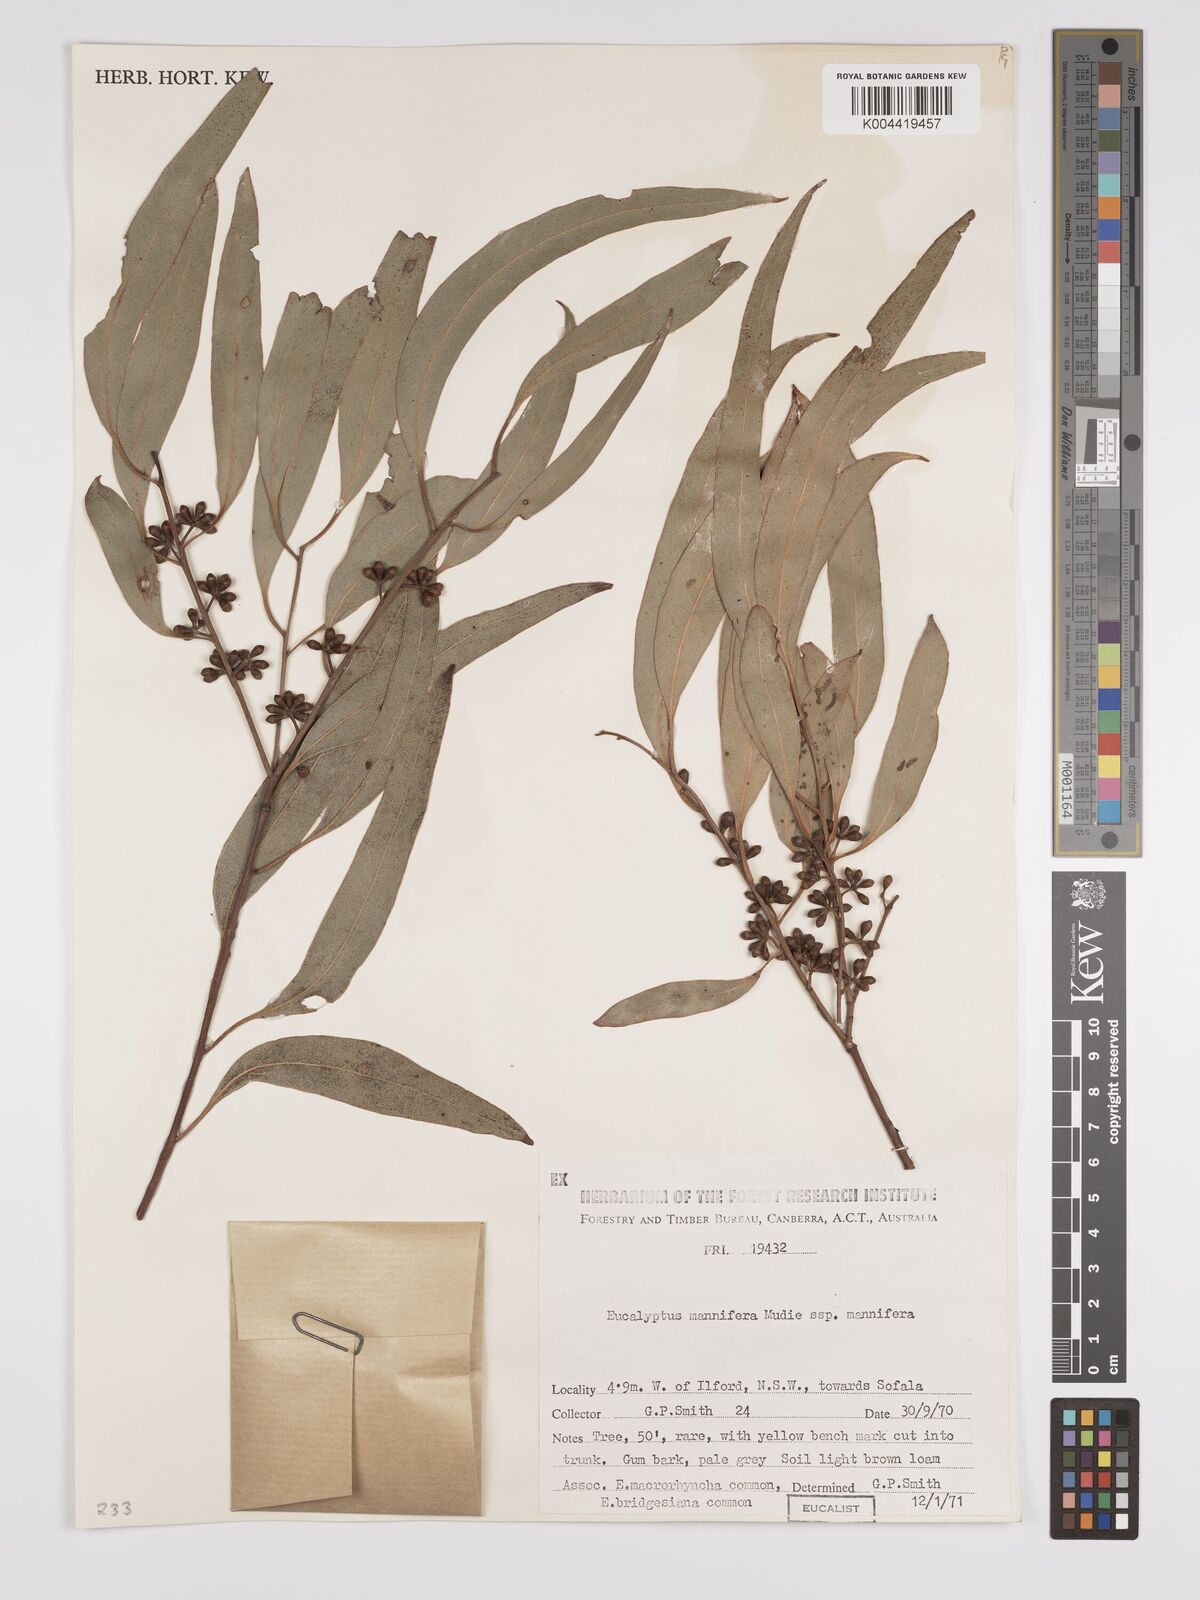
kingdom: Plantae
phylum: Tracheophyta
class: Magnoliopsida
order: Myrtales
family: Myrtaceae
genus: Eucalyptus
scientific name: Eucalyptus mannifera
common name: Manna gum
